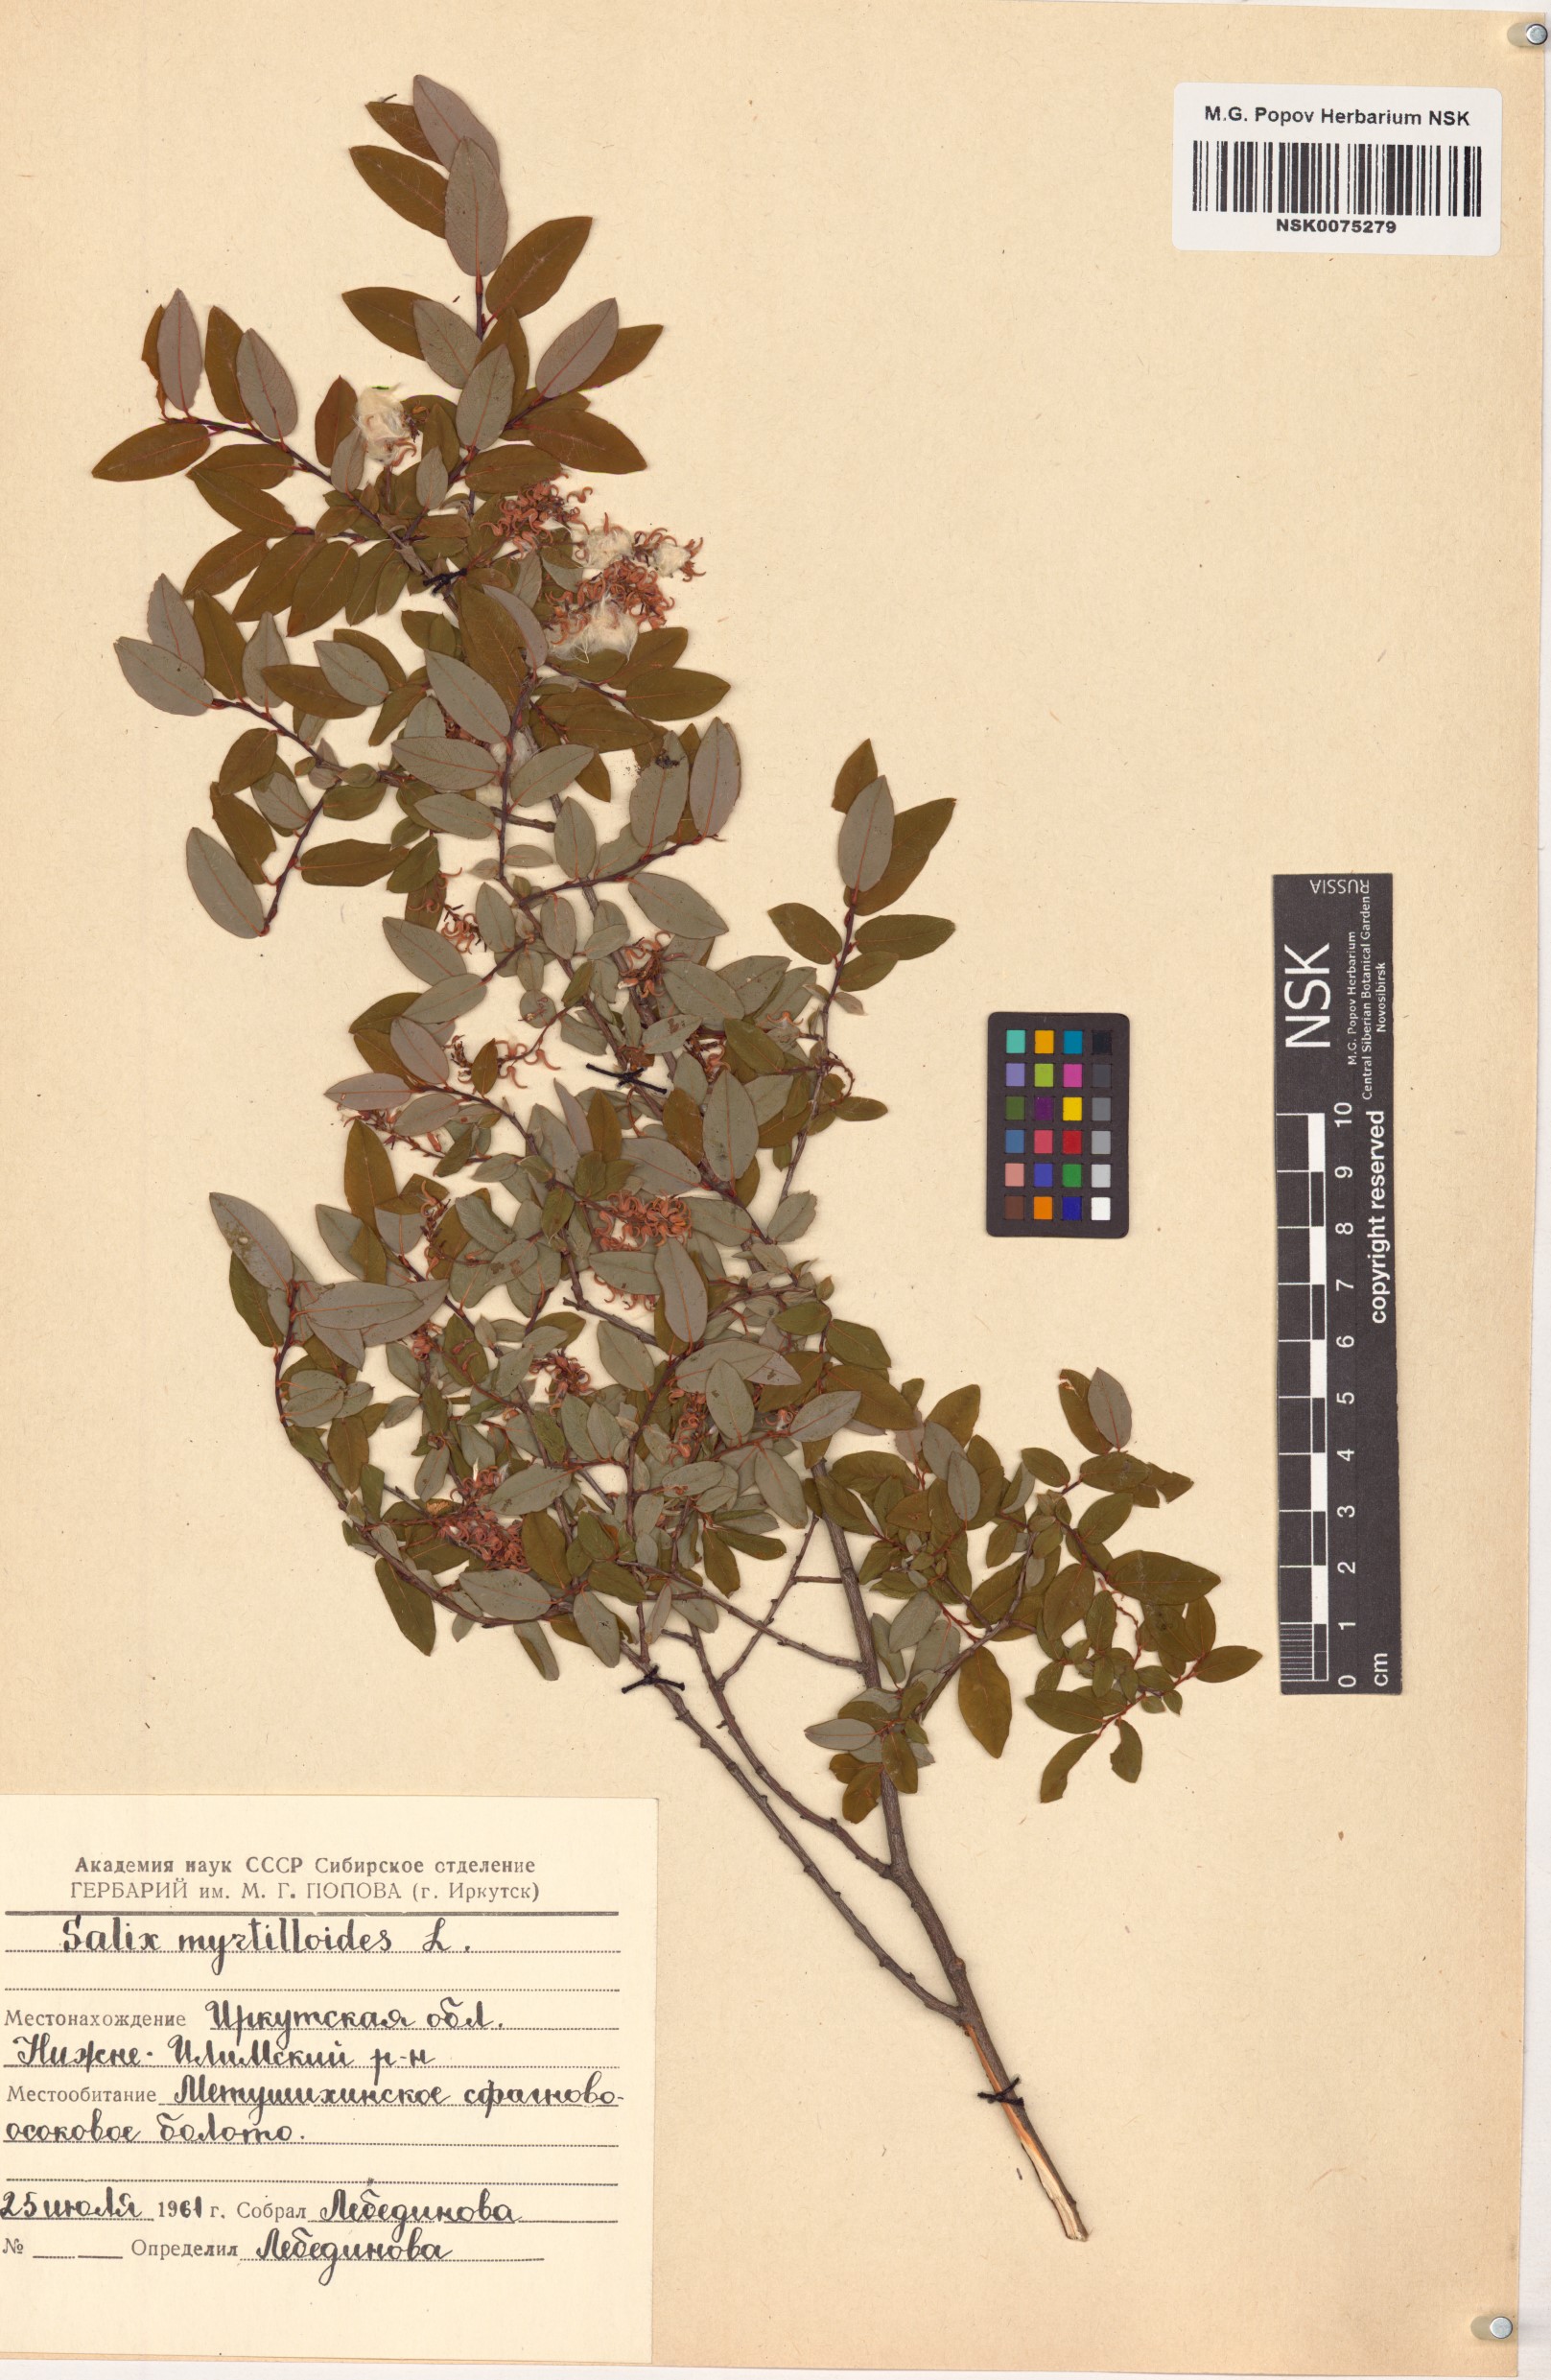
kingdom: Plantae
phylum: Tracheophyta
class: Magnoliopsida
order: Malpighiales
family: Salicaceae
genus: Salix
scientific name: Salix myrtilloides
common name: Myrtle-leaved willow
